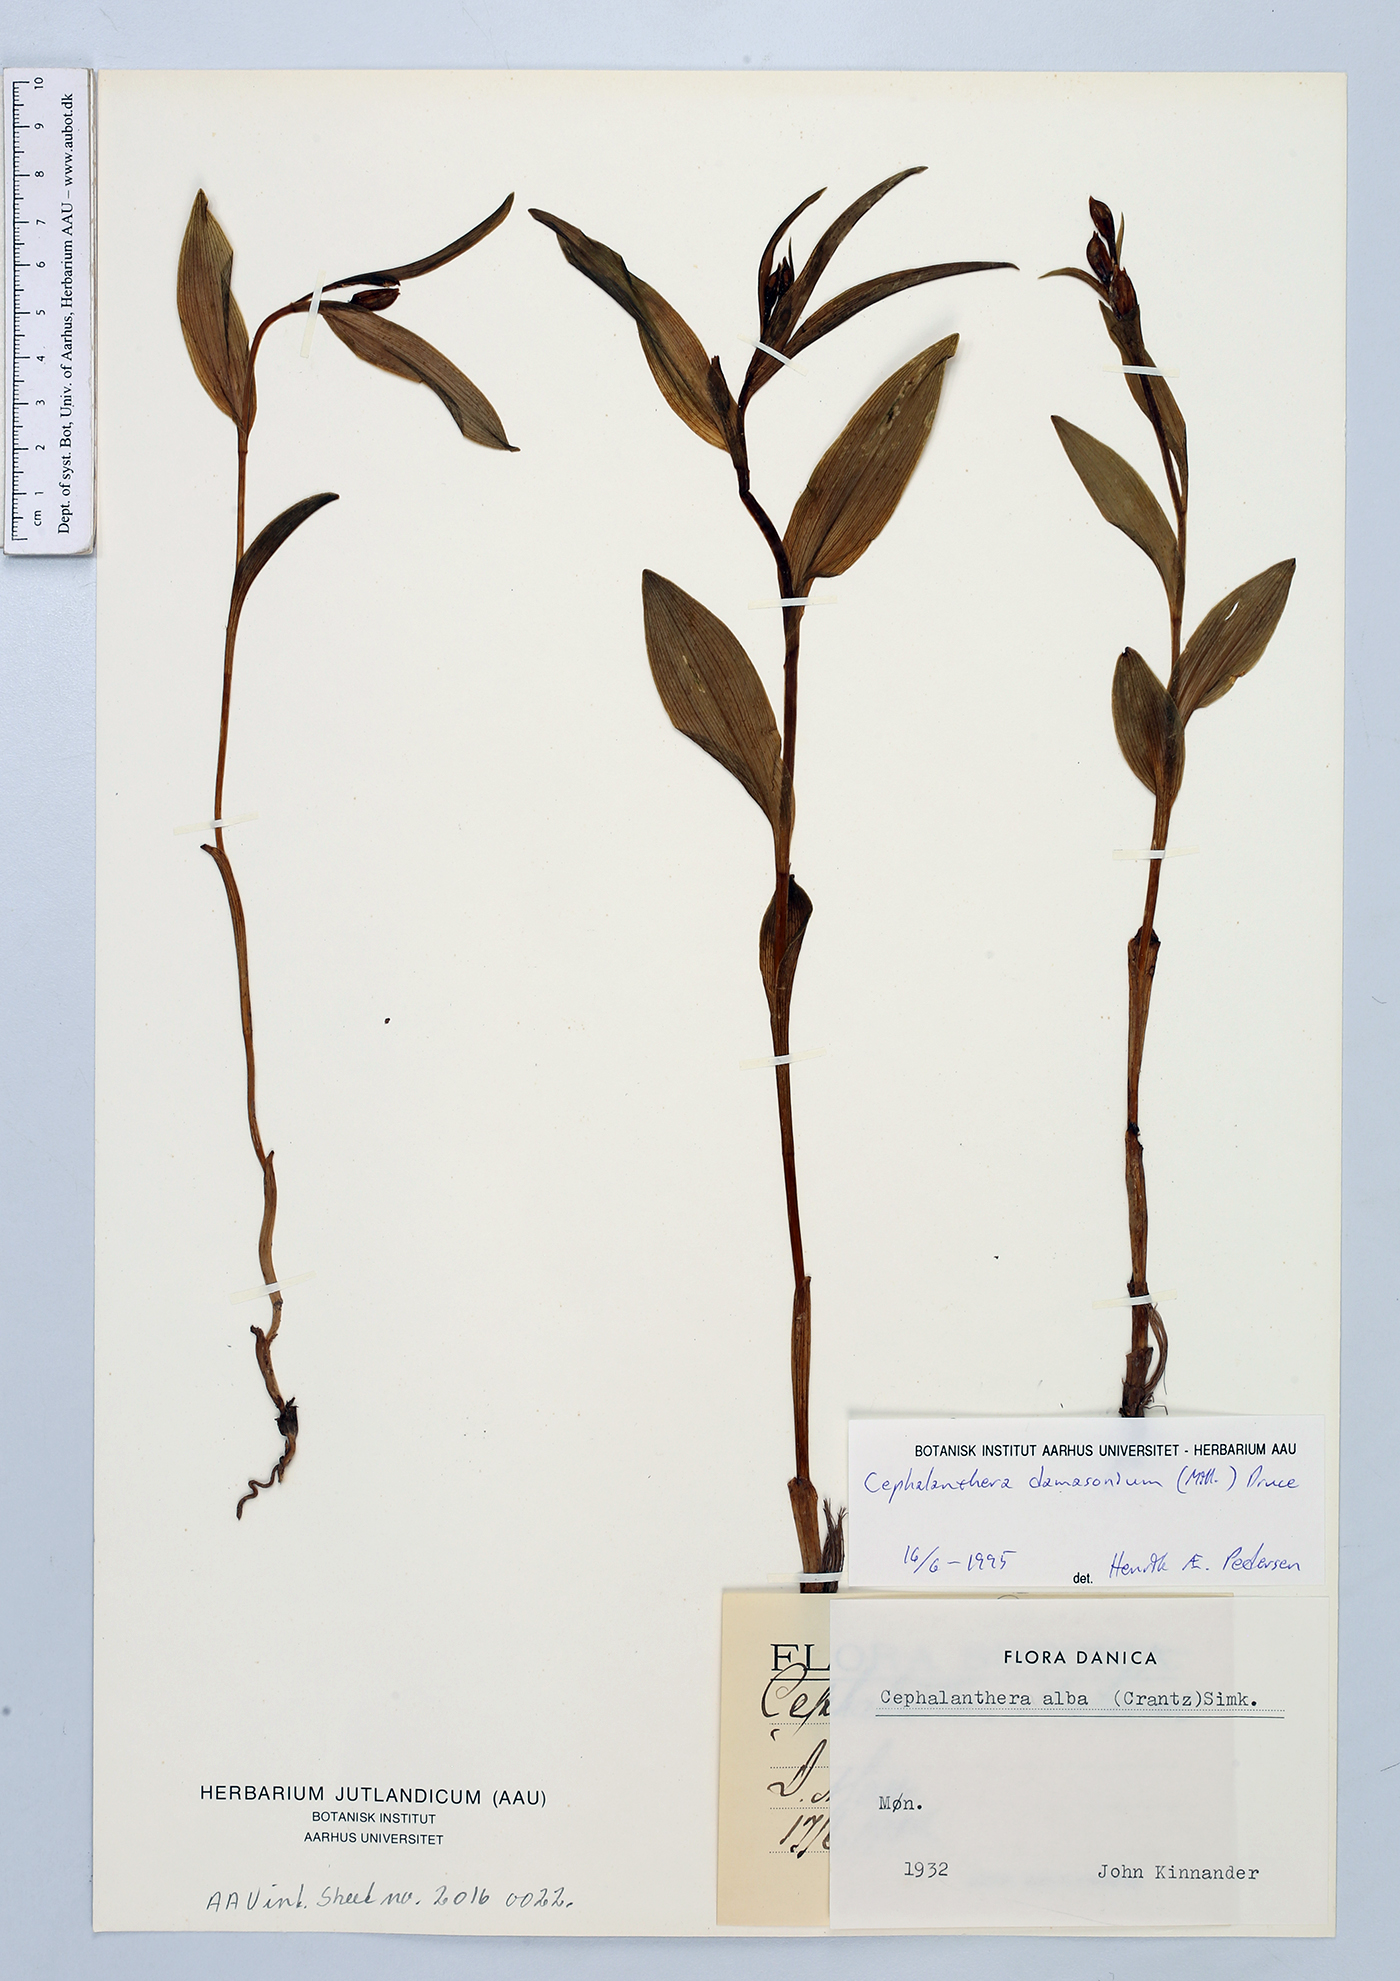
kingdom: Plantae
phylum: Tracheophyta
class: Liliopsida
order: Asparagales
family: Orchidaceae
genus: Cephalanthera
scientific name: Cephalanthera damasonium
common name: White helleborine
